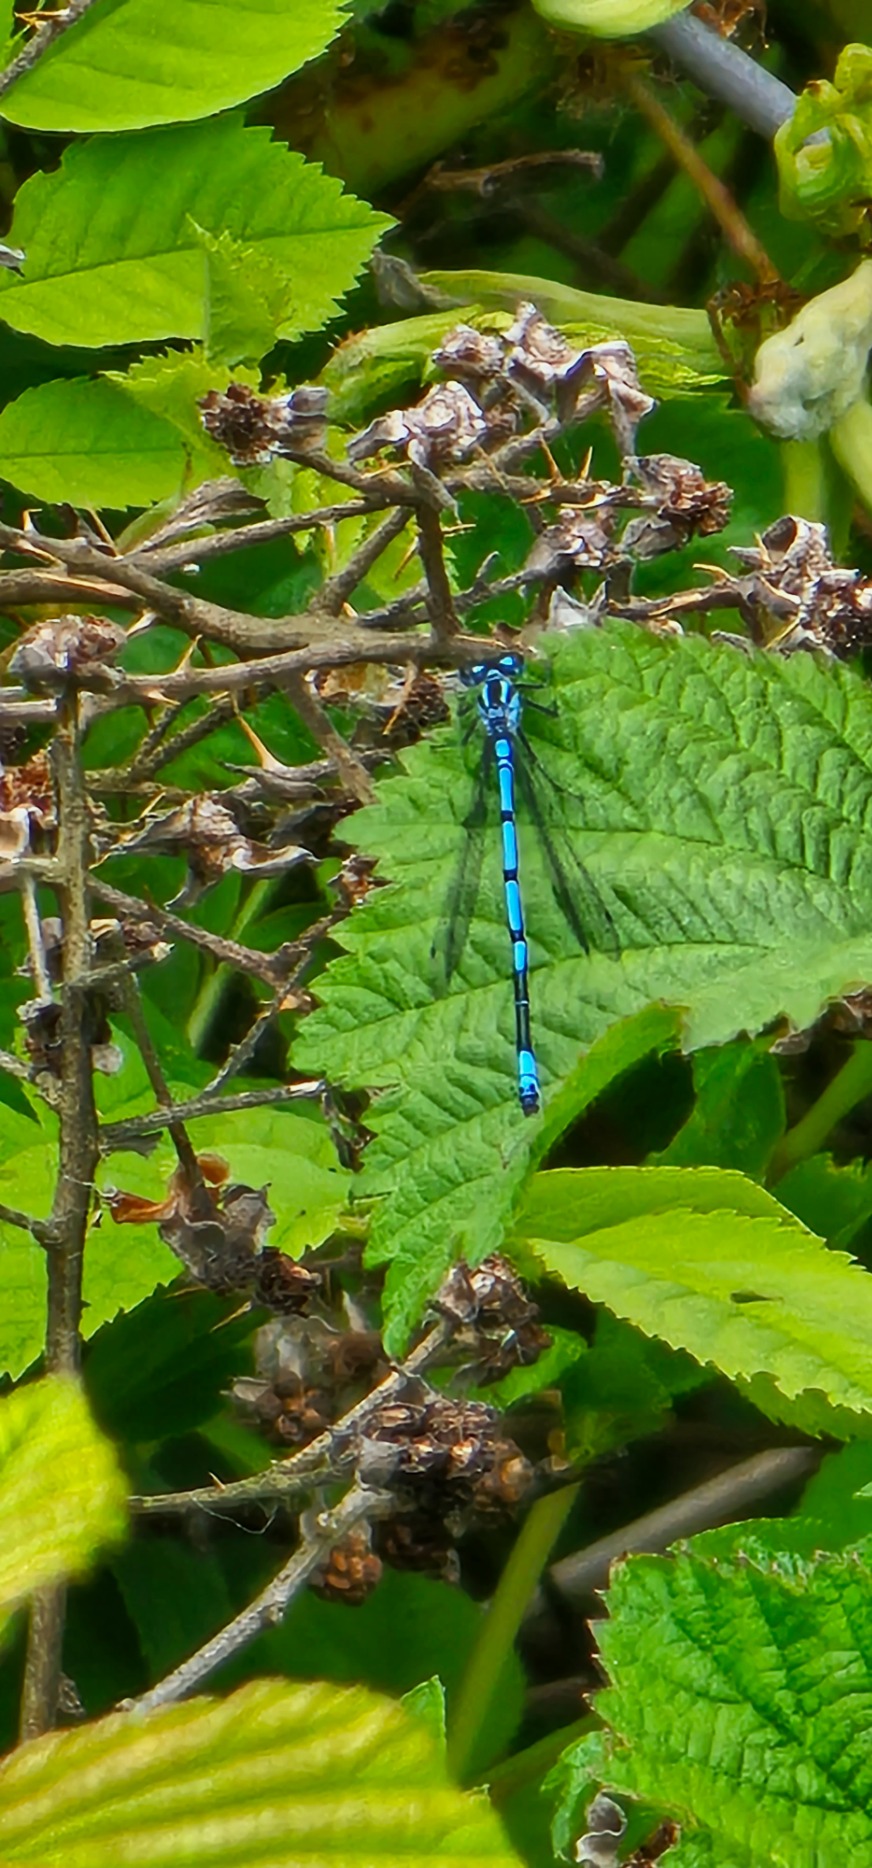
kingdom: Animalia
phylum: Arthropoda
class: Insecta
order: Odonata
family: Coenagrionidae
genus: Coenagrion
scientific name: Coenagrion puella
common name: Hestesko-vandnymfe
